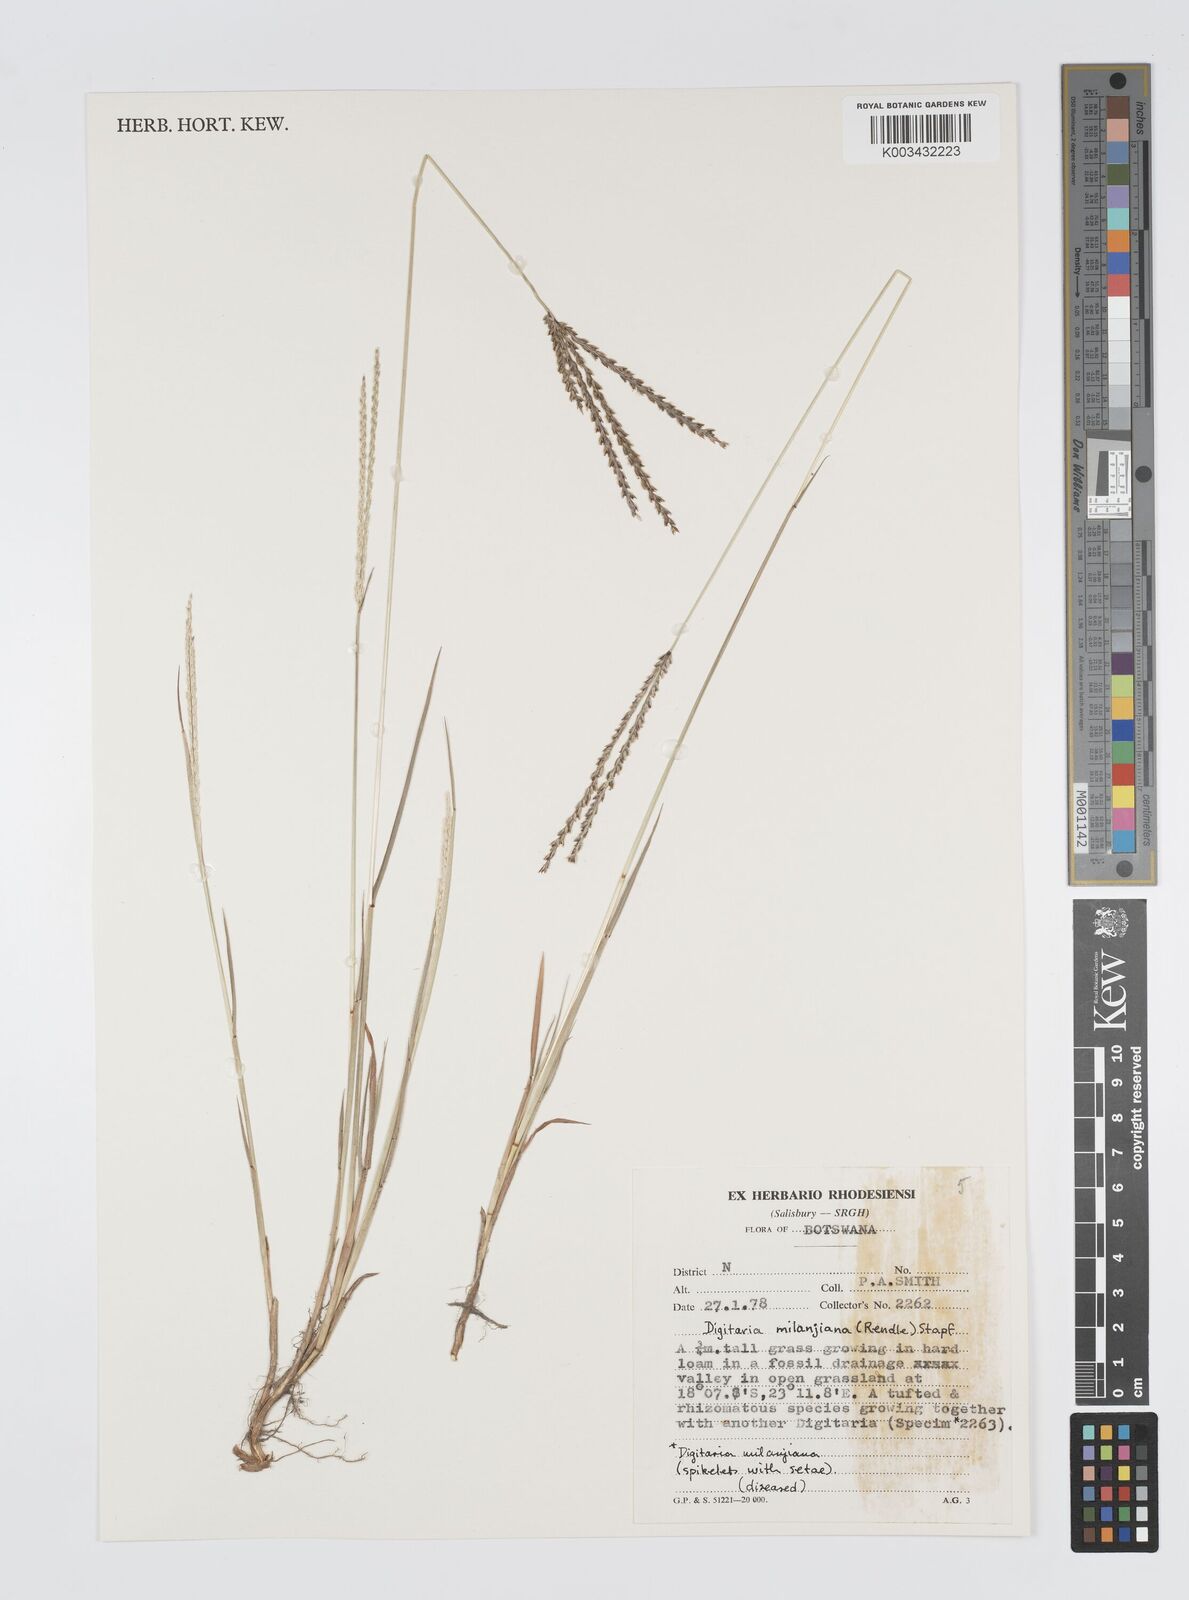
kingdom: Plantae
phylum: Tracheophyta
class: Liliopsida
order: Poales
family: Poaceae
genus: Digitaria
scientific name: Digitaria milanjiana
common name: Madagascar crabgrass
